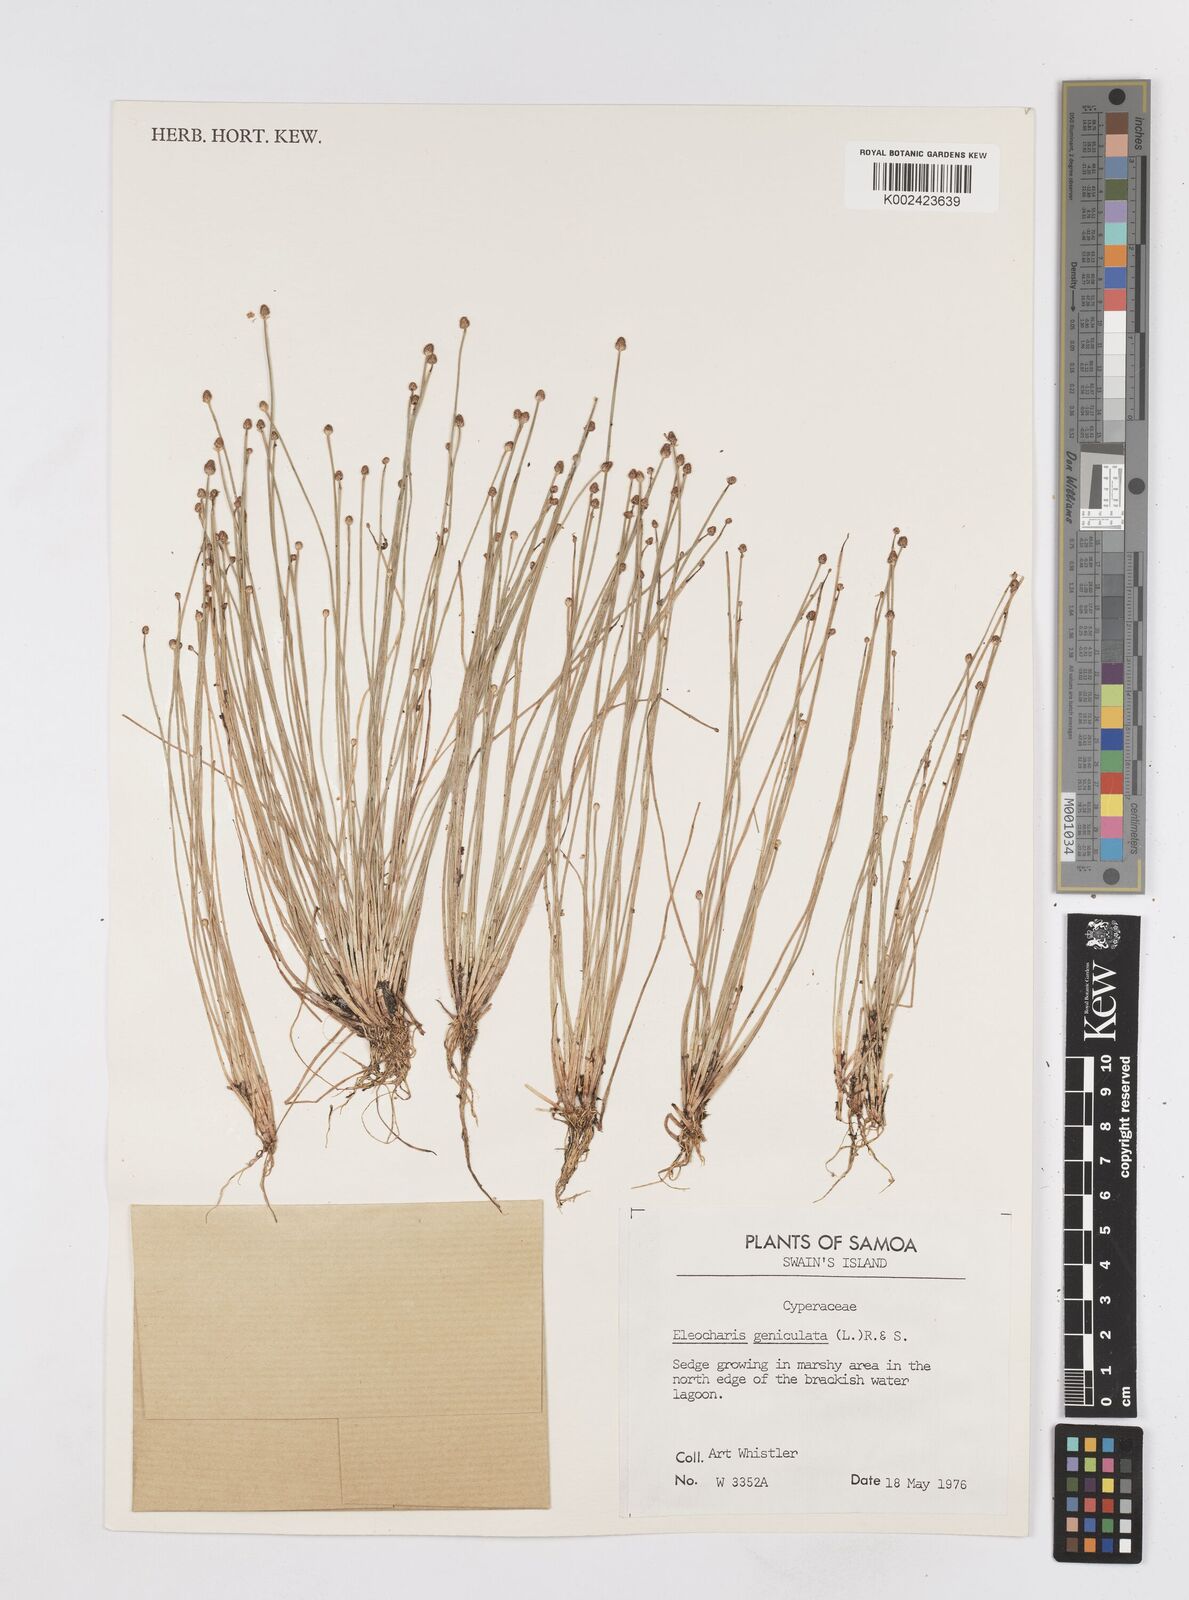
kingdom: Plantae
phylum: Tracheophyta
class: Liliopsida
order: Poales
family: Cyperaceae
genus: Eleocharis
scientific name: Eleocharis geniculata
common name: Canada spikesedge
